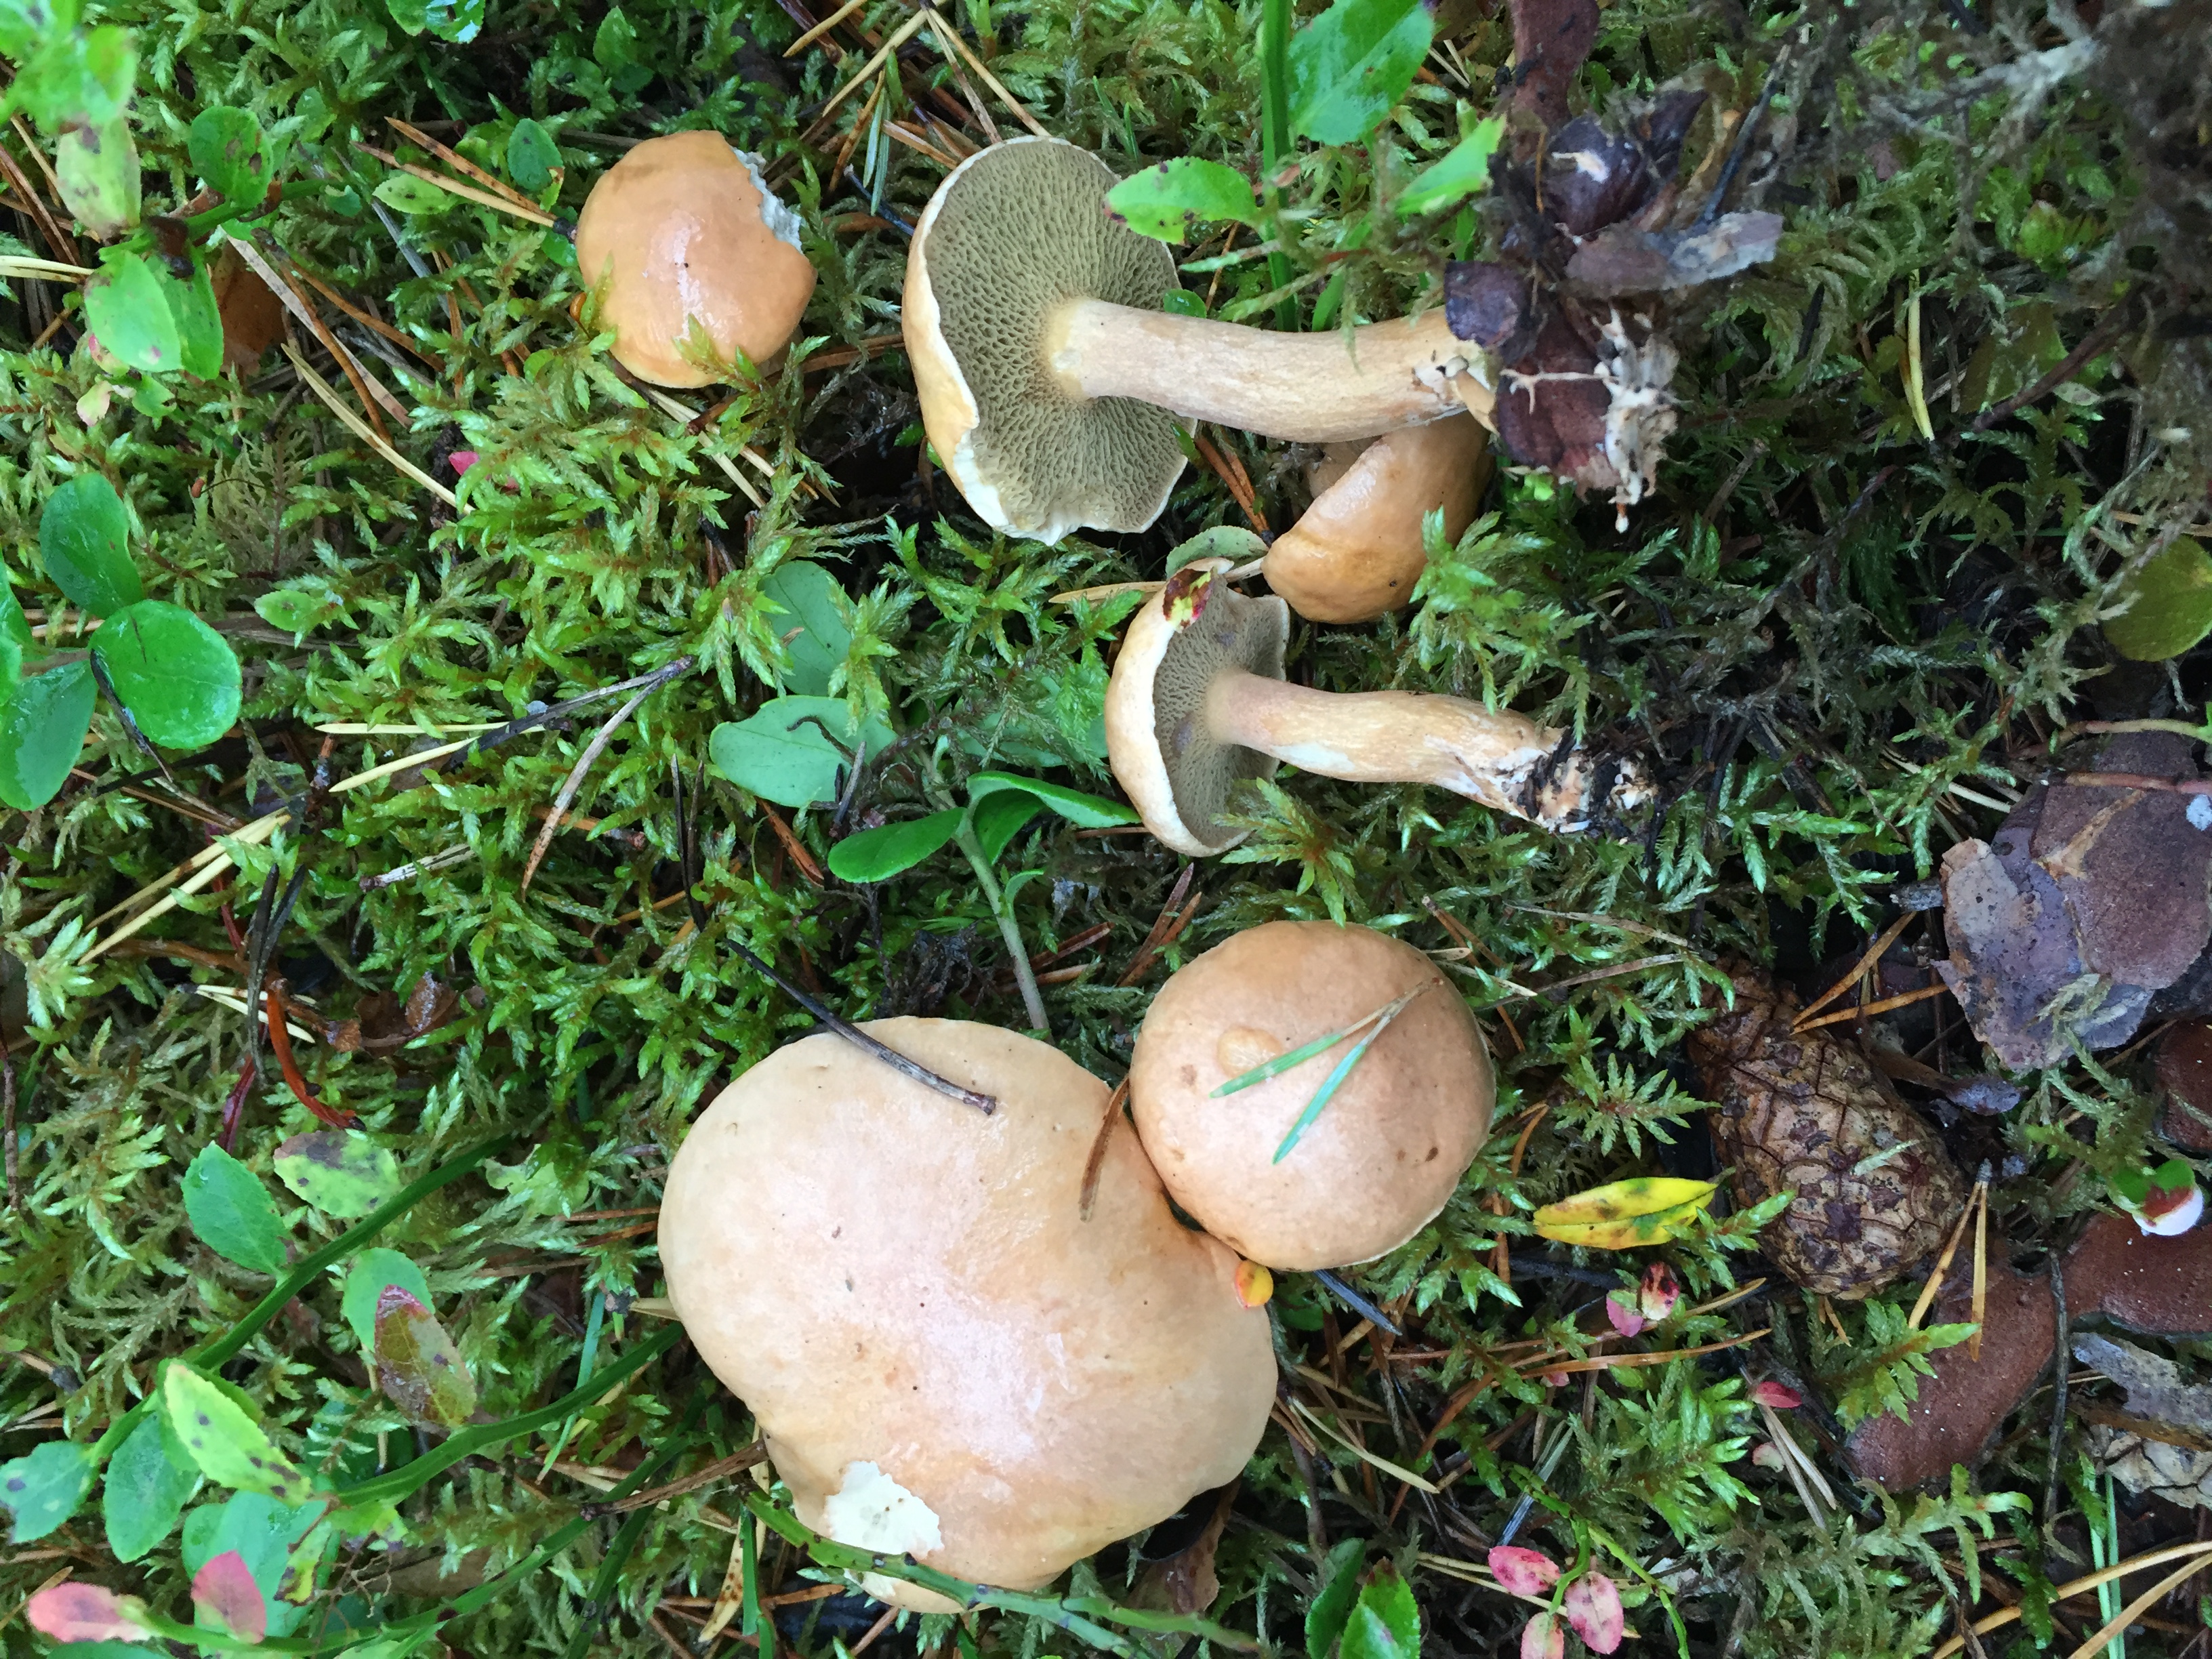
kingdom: Fungi
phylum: Basidiomycota
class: Agaricomycetes
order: Boletales
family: Suillaceae
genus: Suillus
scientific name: Suillus bovinus
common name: Bovine bolete
